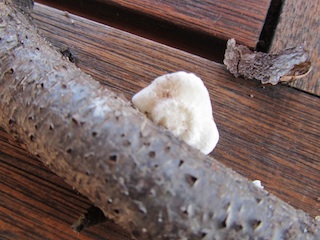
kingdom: Fungi
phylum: Basidiomycota
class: Agaricomycetes
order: Agaricales
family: Crepidotaceae
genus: Crepidotus
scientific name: Crepidotus caspari
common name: Lundells muslingesvamp
